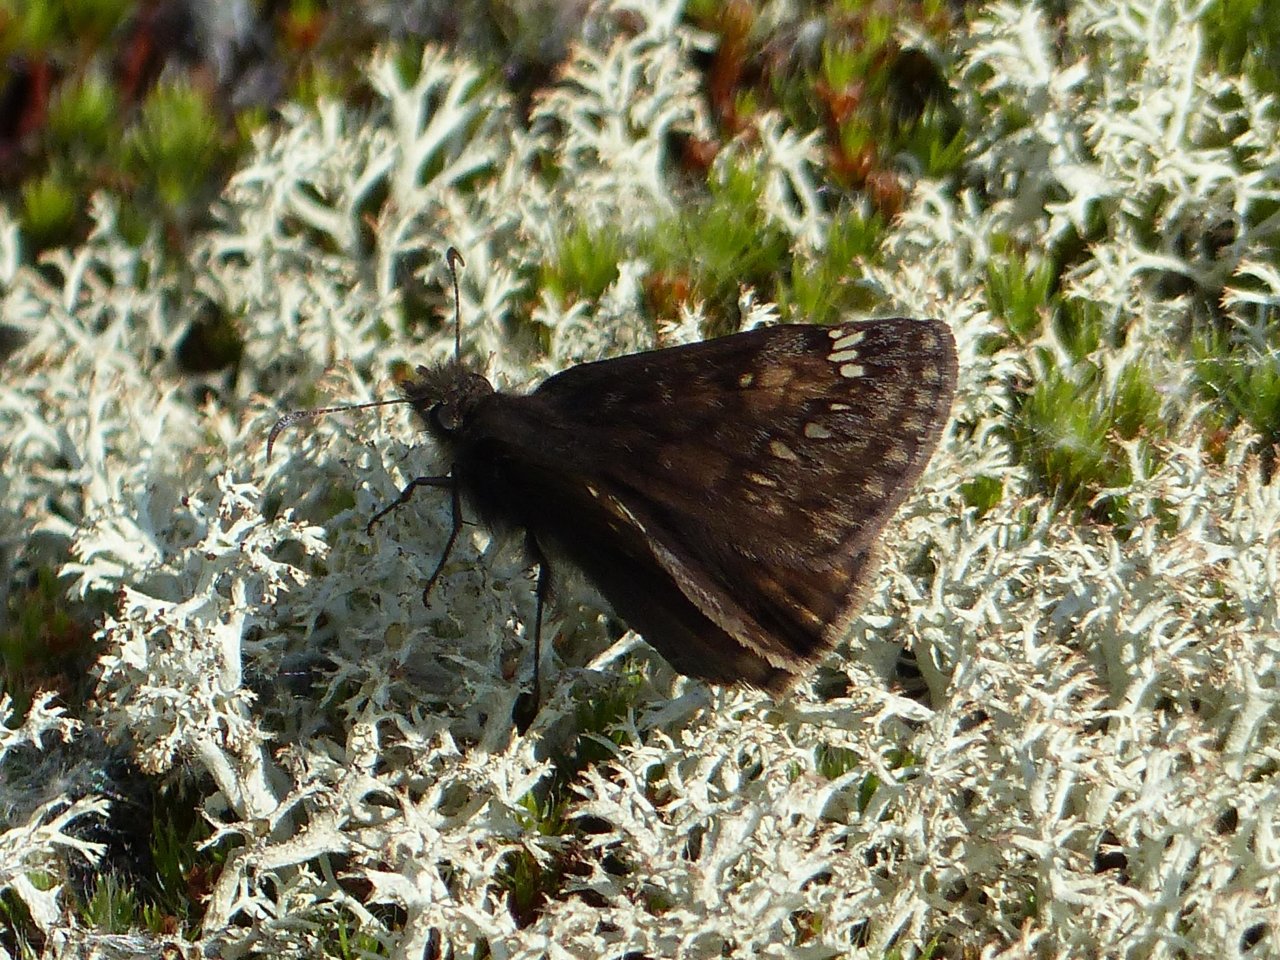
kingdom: Animalia
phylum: Arthropoda
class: Insecta
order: Lepidoptera
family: Hesperiidae
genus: Gesta
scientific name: Gesta
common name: Juvenal's Duskywing
